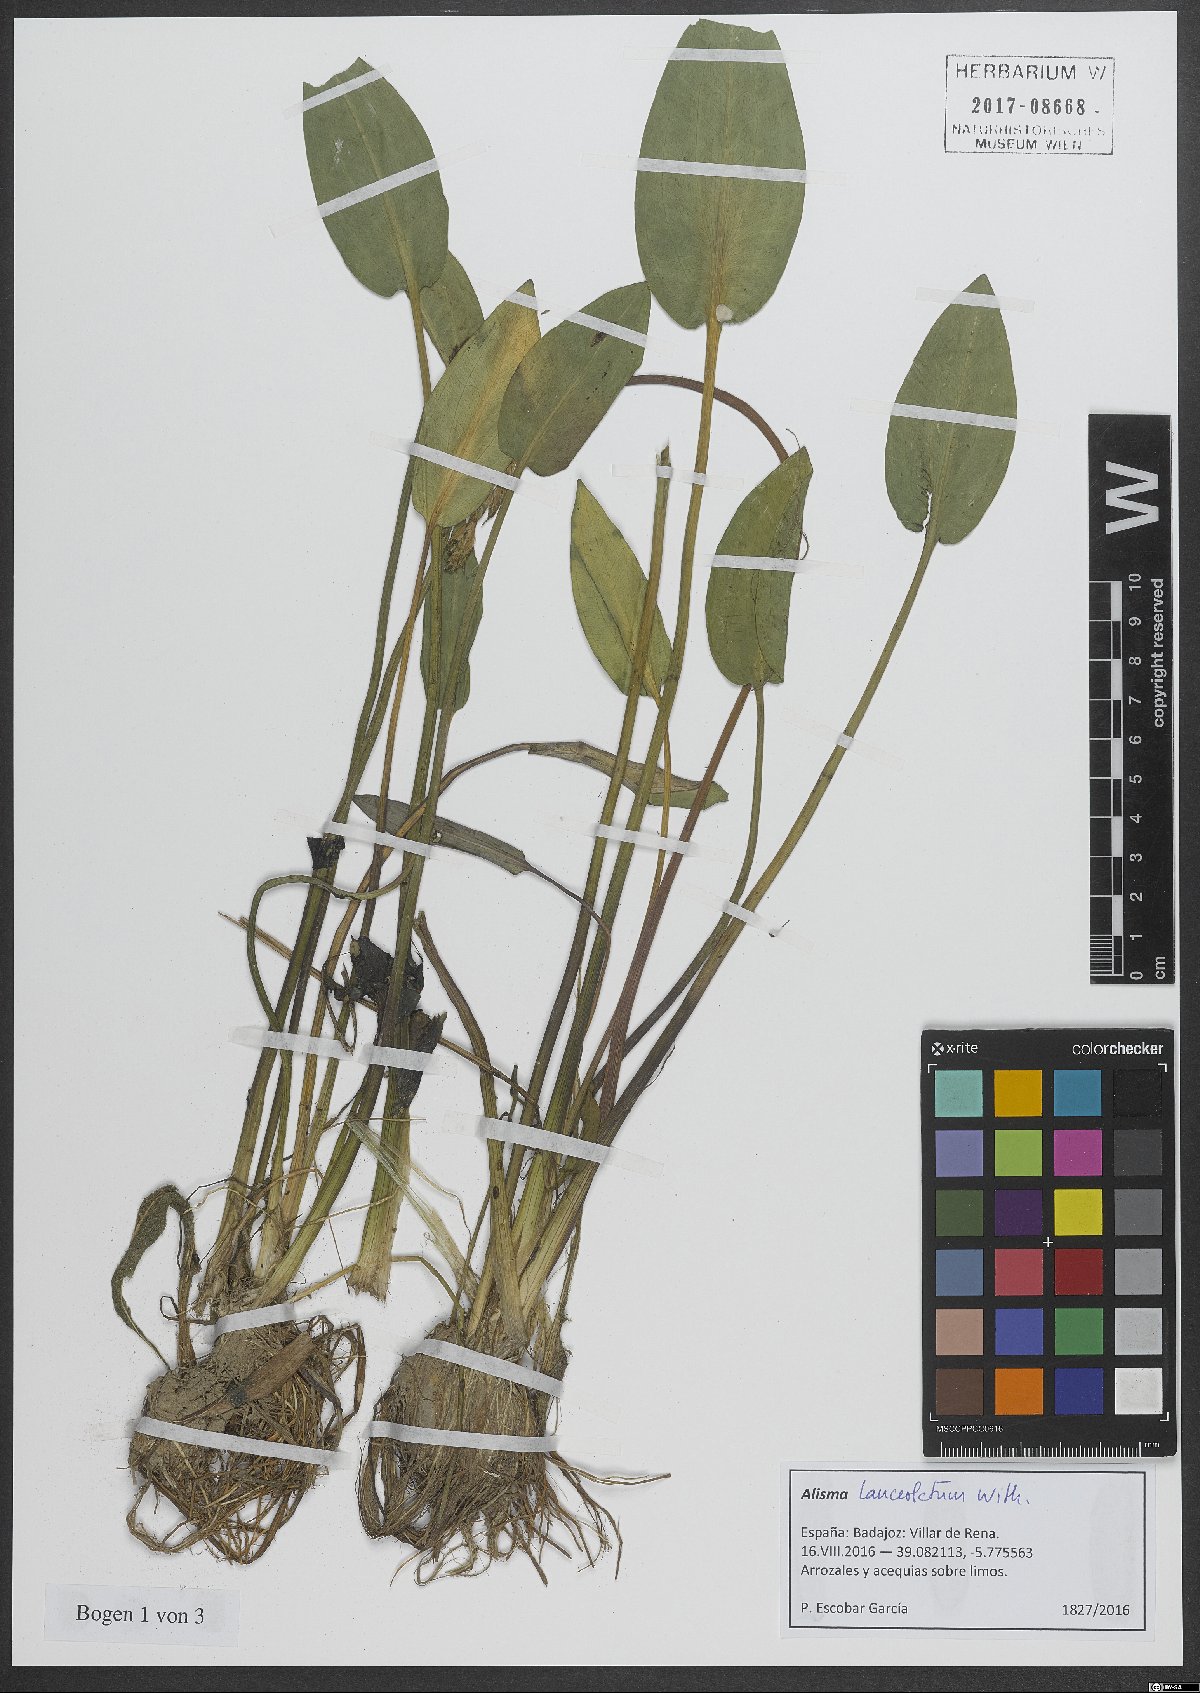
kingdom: Plantae
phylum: Tracheophyta
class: Liliopsida
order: Alismatales
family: Alismataceae
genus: Alisma
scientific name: Alisma lanceolatum
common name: Narrow-leaved water-plantain
